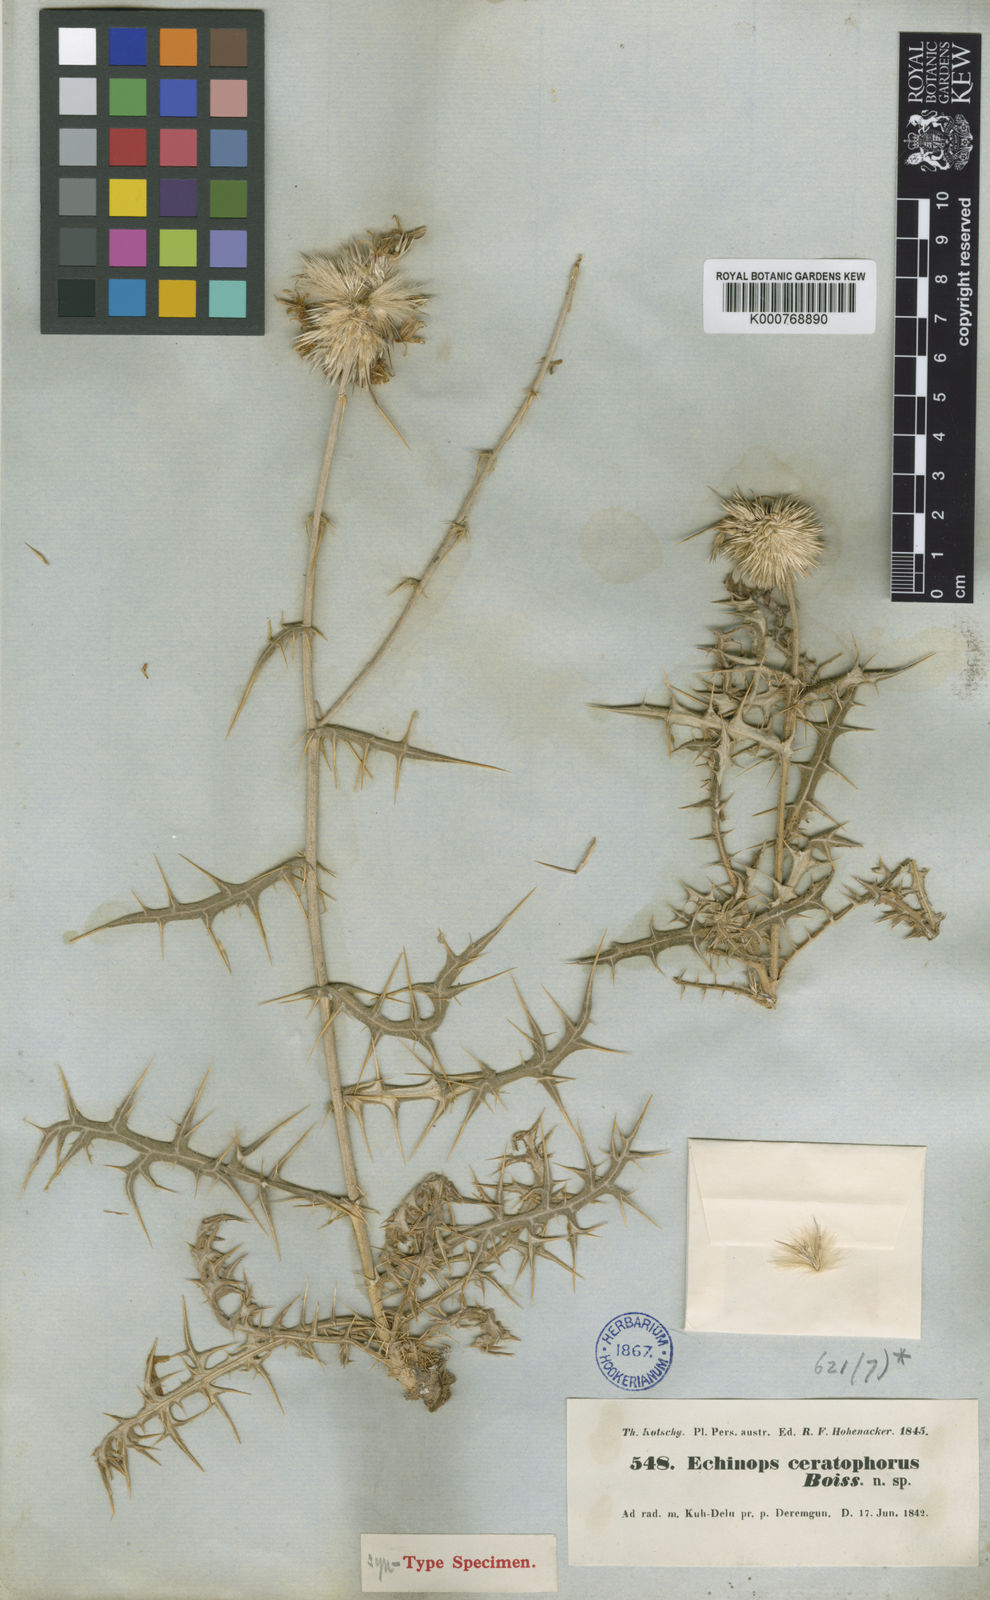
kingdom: Plantae
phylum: Tracheophyta
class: Magnoliopsida
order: Asterales
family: Asteraceae
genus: Echinops
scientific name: Echinops ceratophorus
